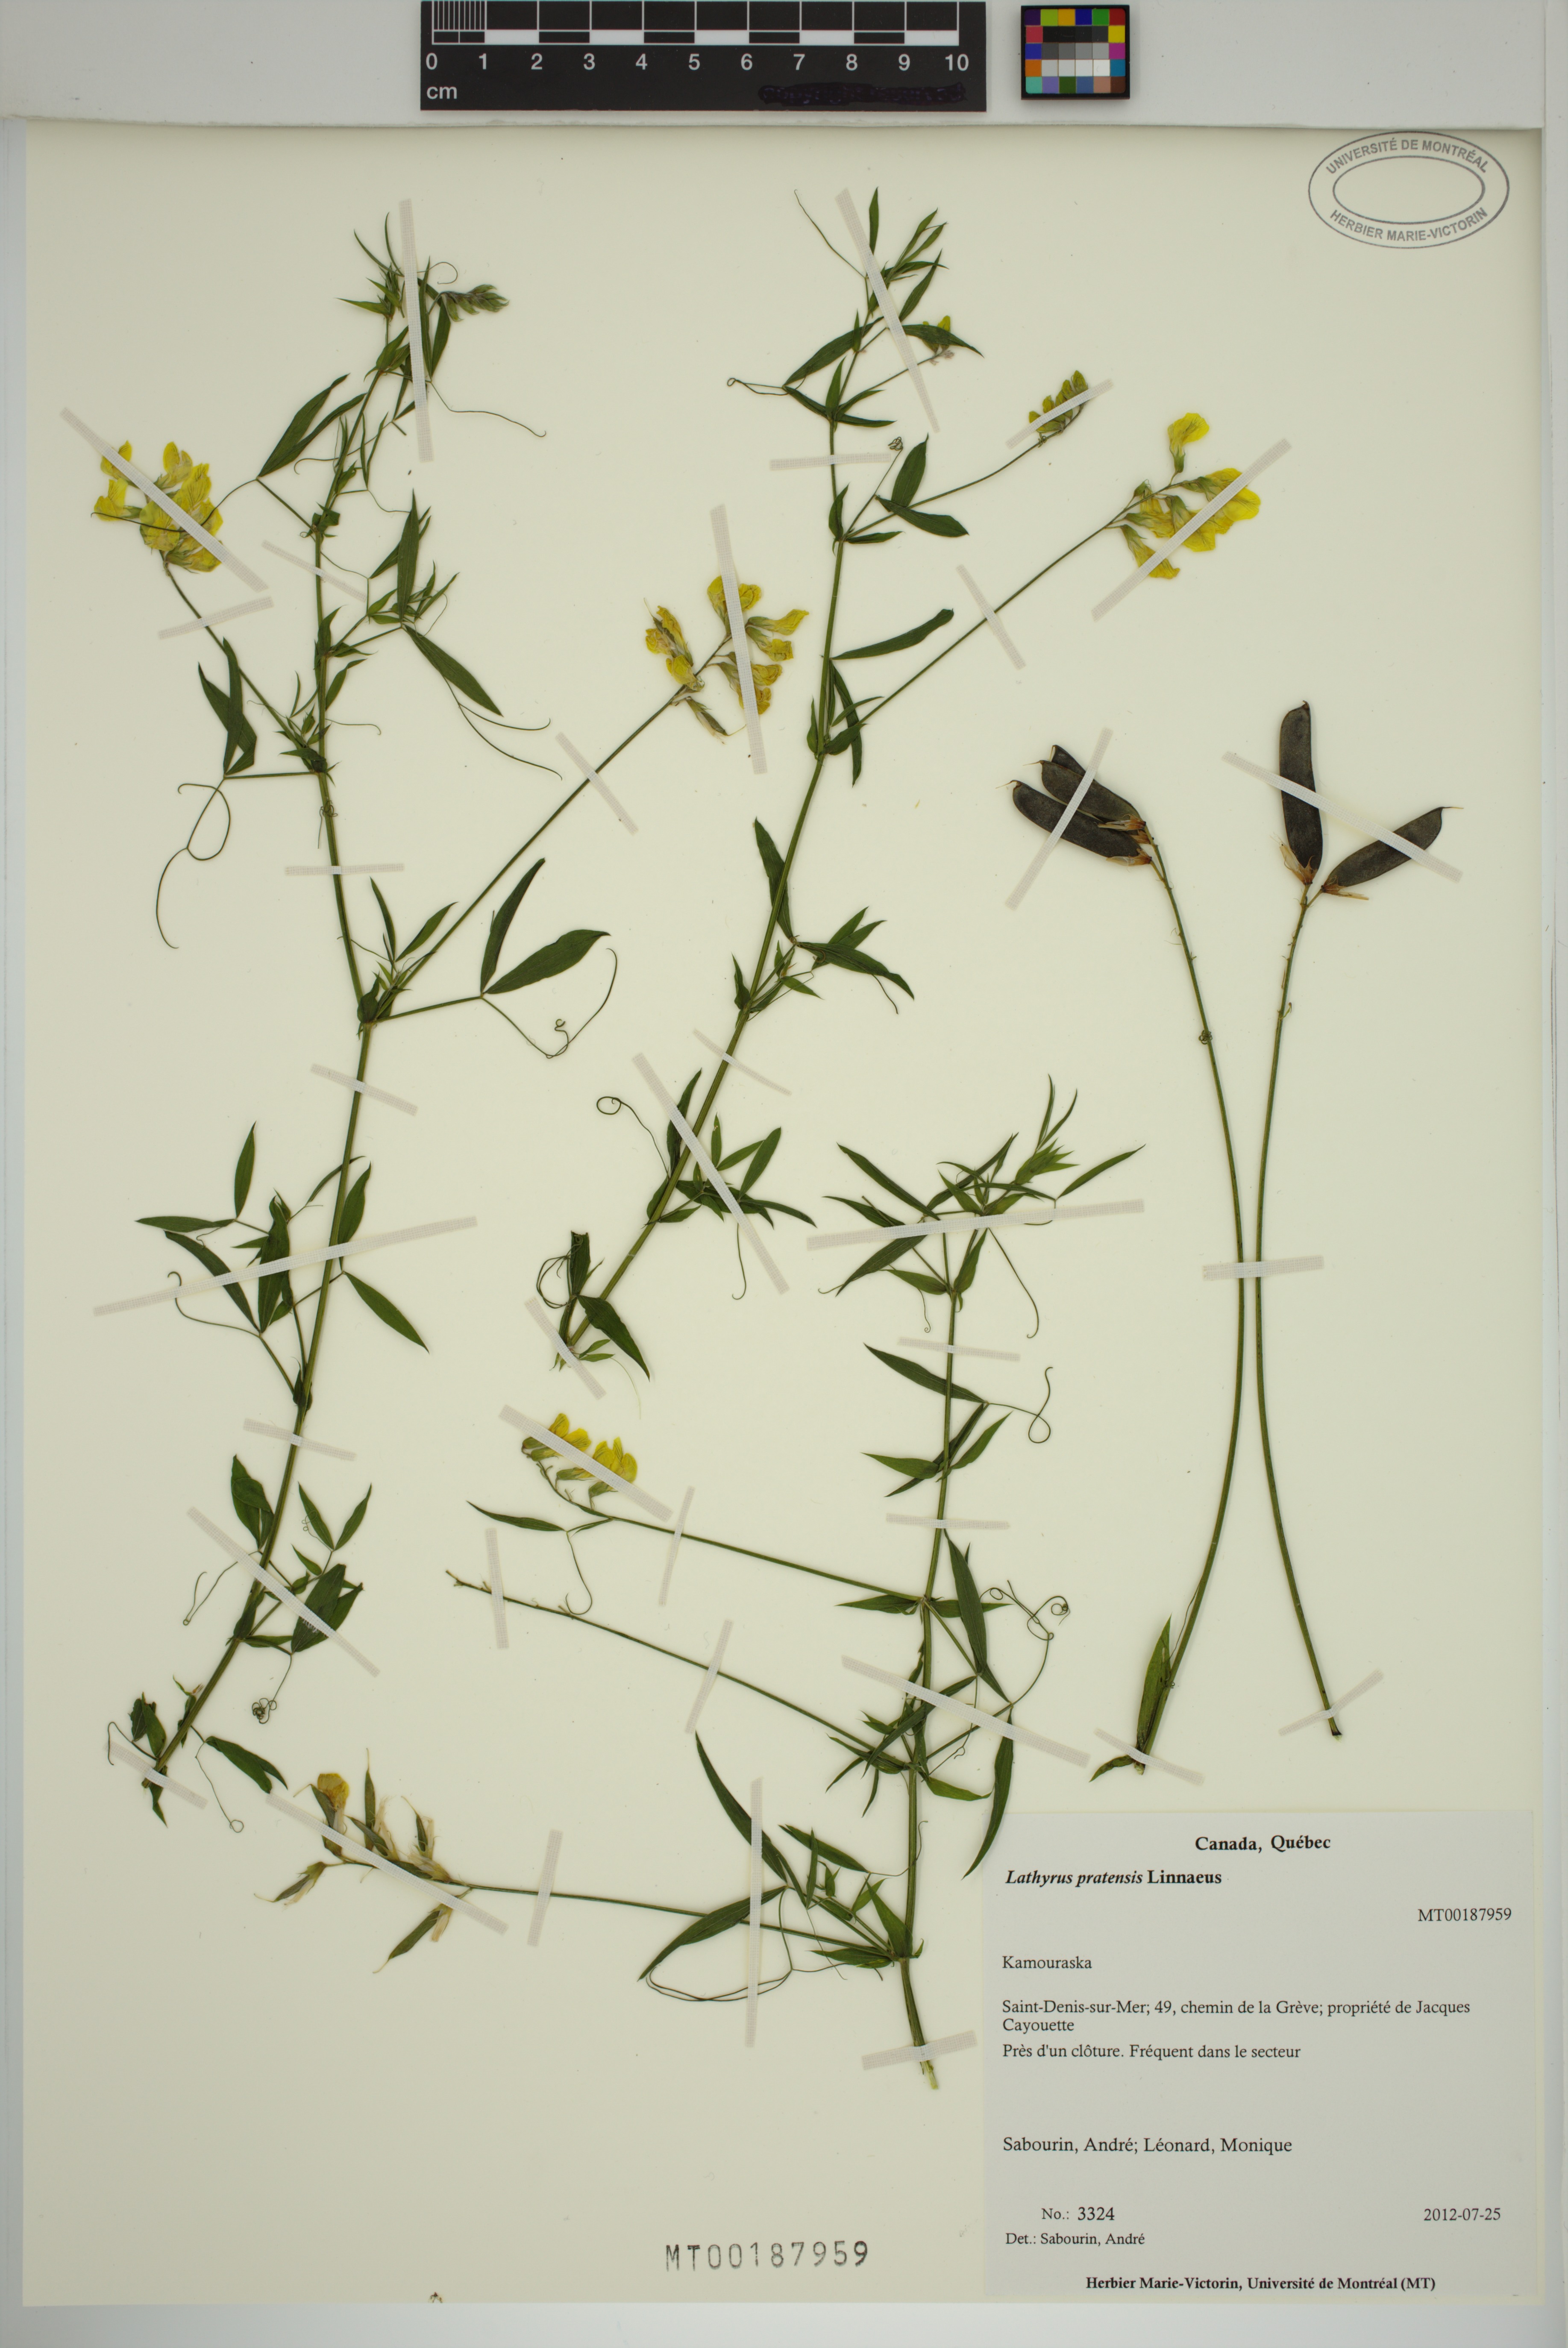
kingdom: Plantae
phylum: Tracheophyta
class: Magnoliopsida
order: Fabales
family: Fabaceae
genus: Lathyrus
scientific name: Lathyrus pratensis
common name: Meadow vetchling
